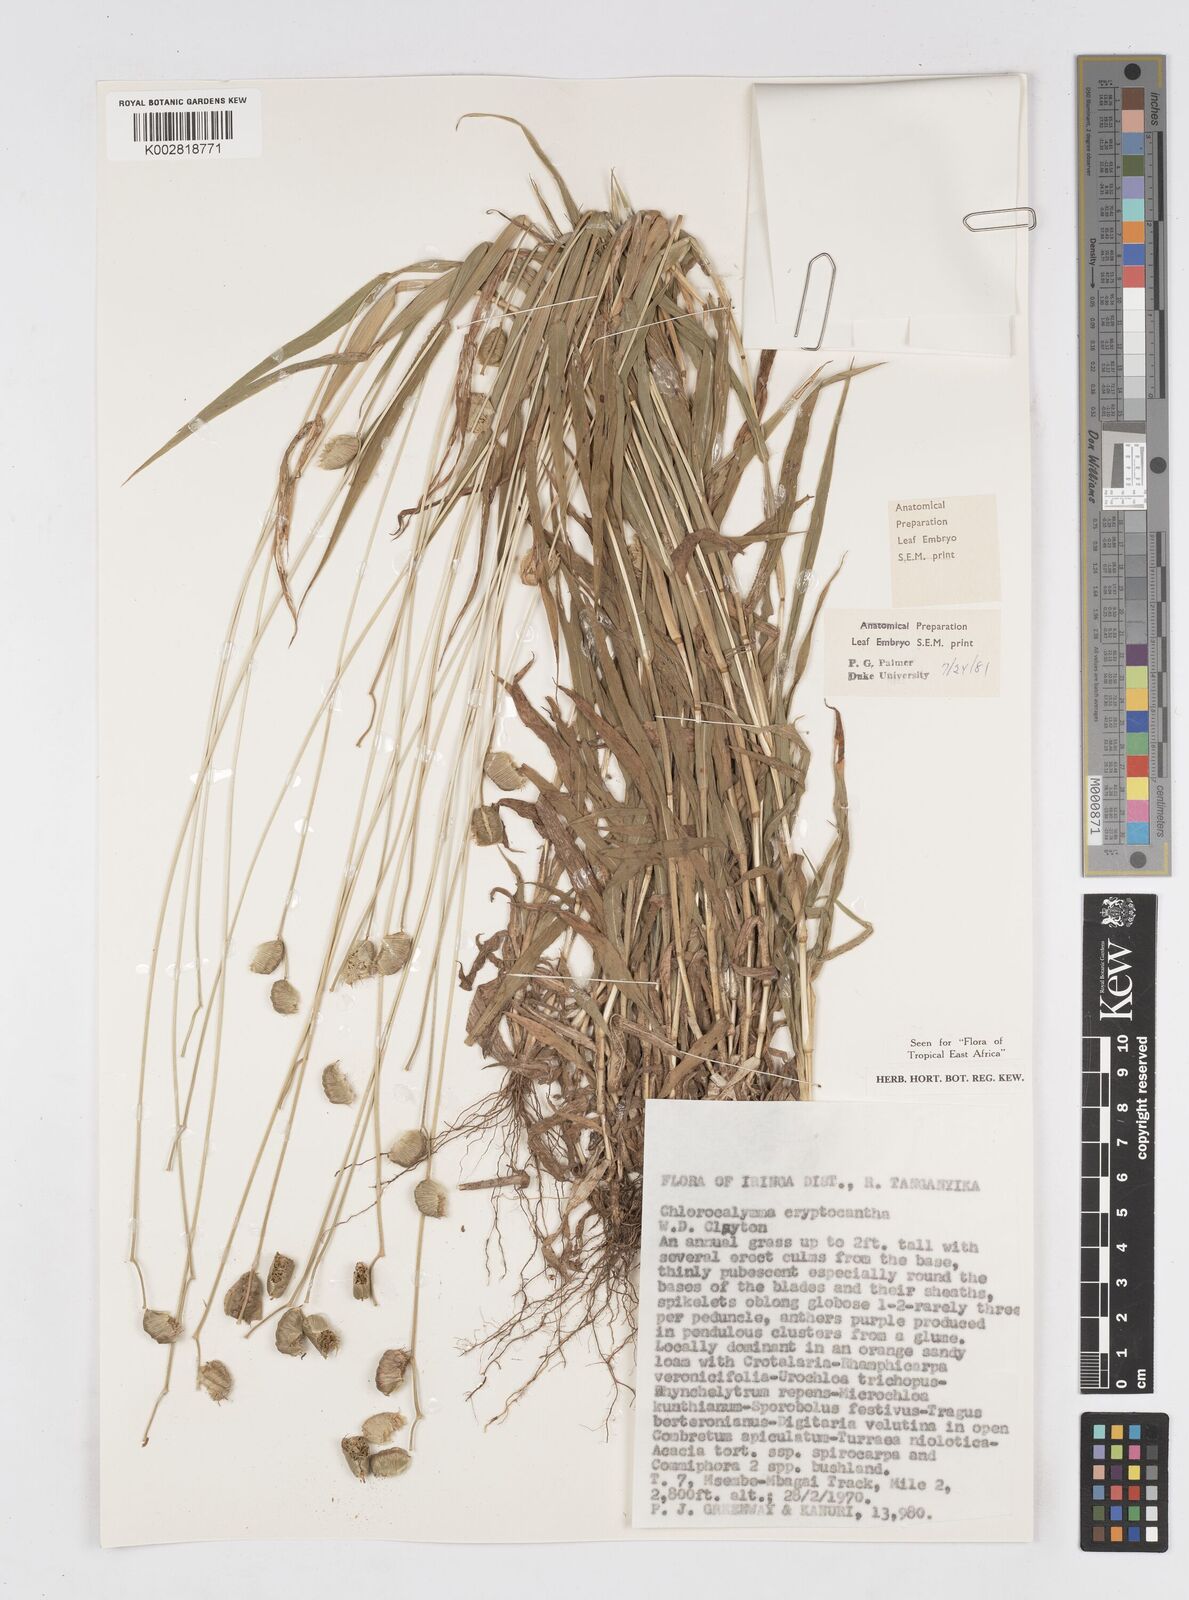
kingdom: Plantae
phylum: Tracheophyta
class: Liliopsida
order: Poales
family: Poaceae
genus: Chlorocalymma
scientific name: Chlorocalymma cryptacanthum
